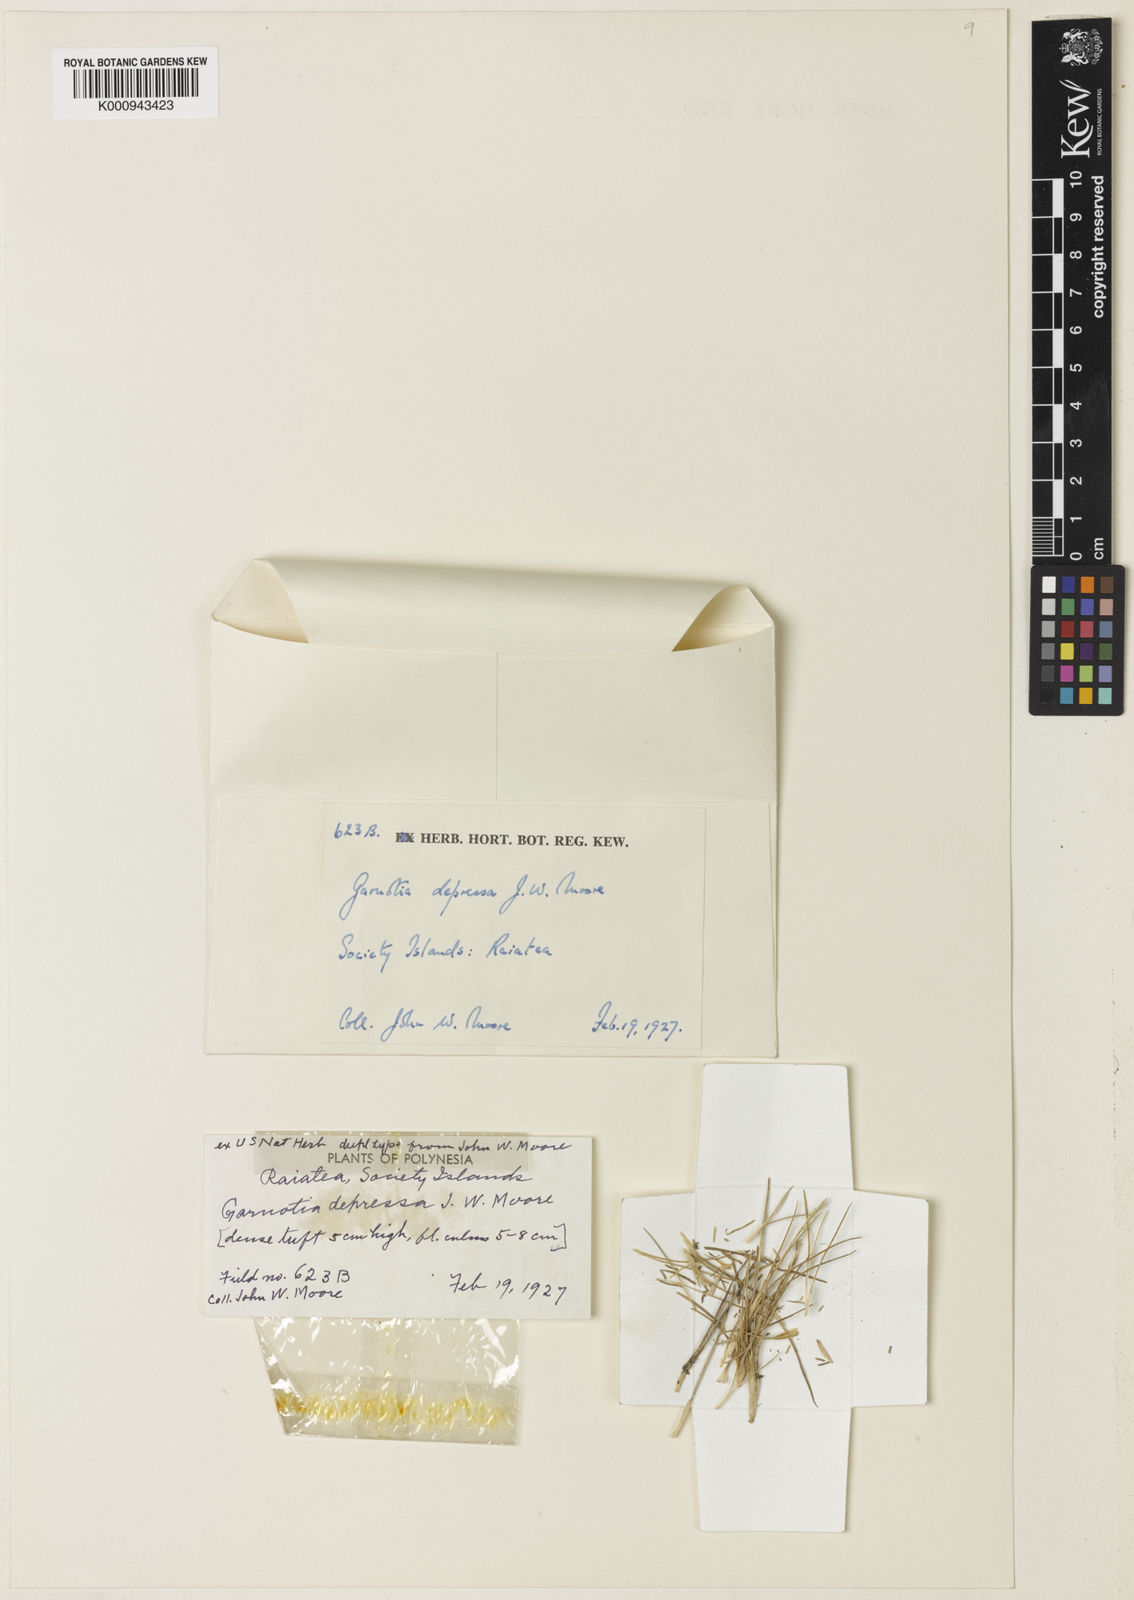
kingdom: Plantae
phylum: Tracheophyta
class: Liliopsida
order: Poales
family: Poaceae
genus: Garnotia
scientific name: Garnotia depressa
